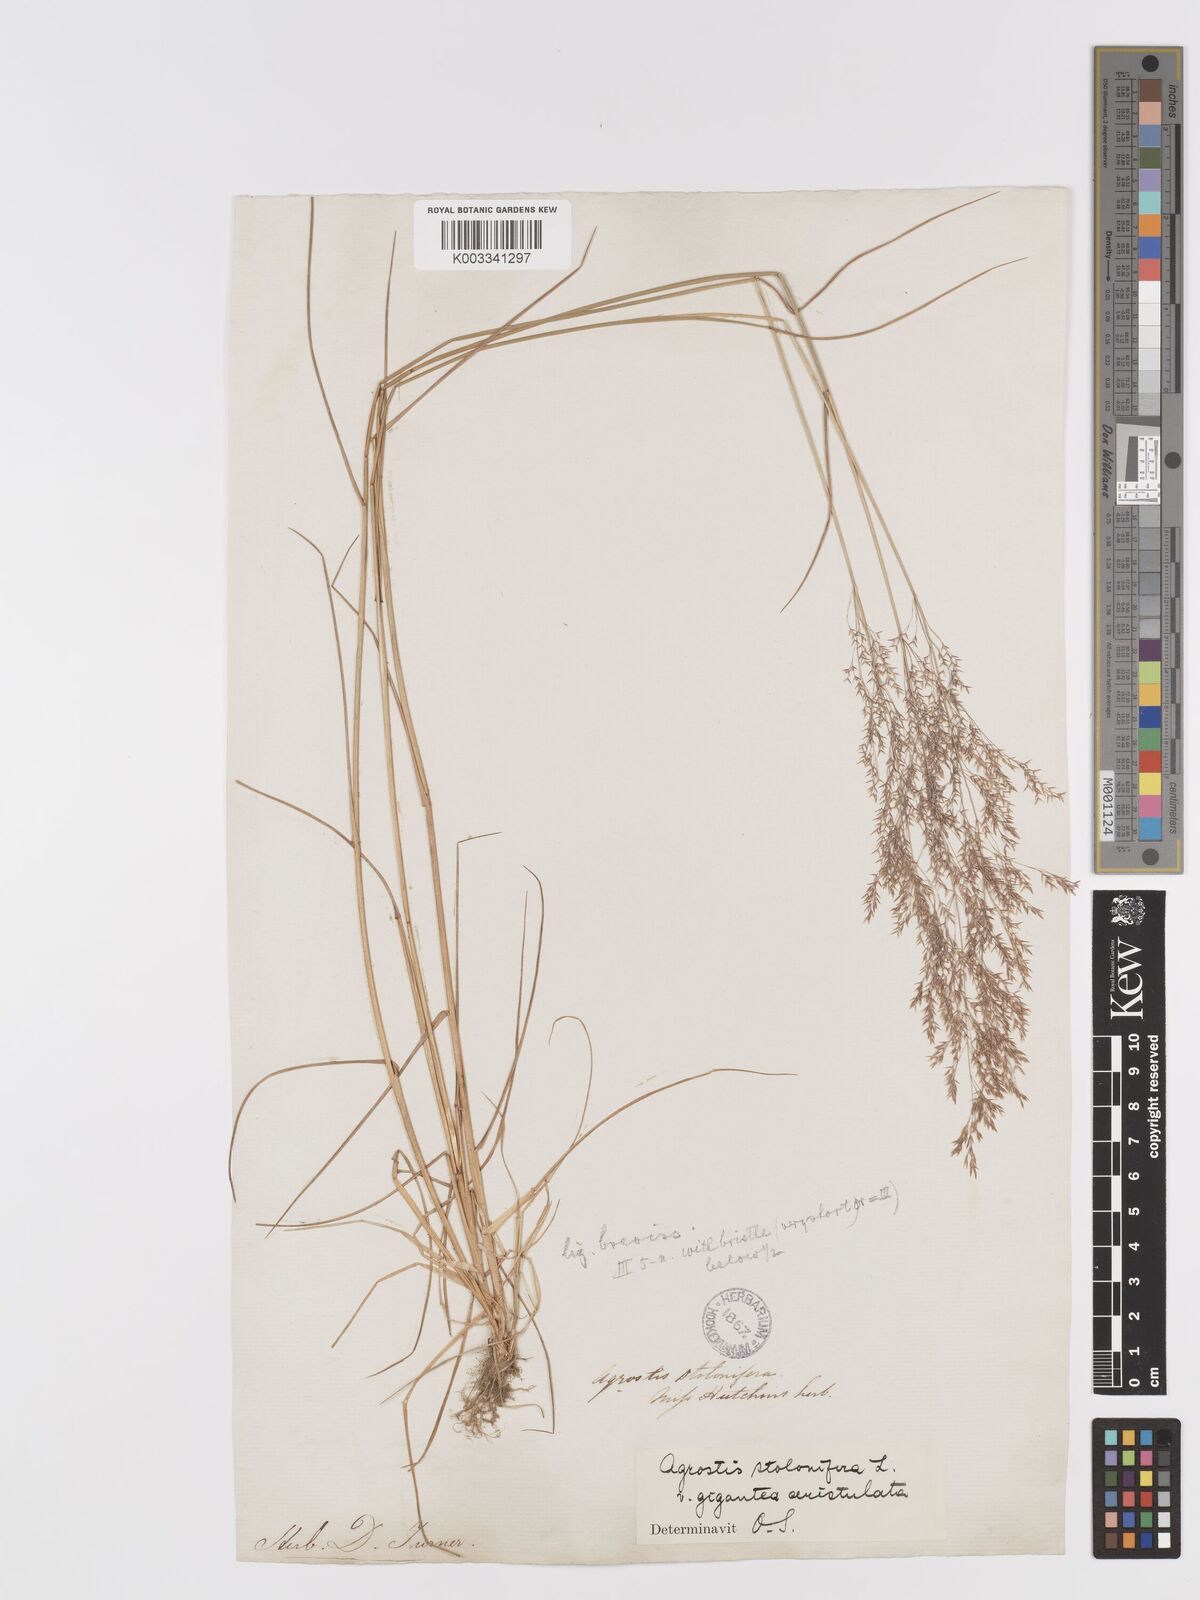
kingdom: Plantae
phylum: Tracheophyta
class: Liliopsida
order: Poales
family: Poaceae
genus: Agrostis
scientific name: Agrostis gigantea
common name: Black bent
